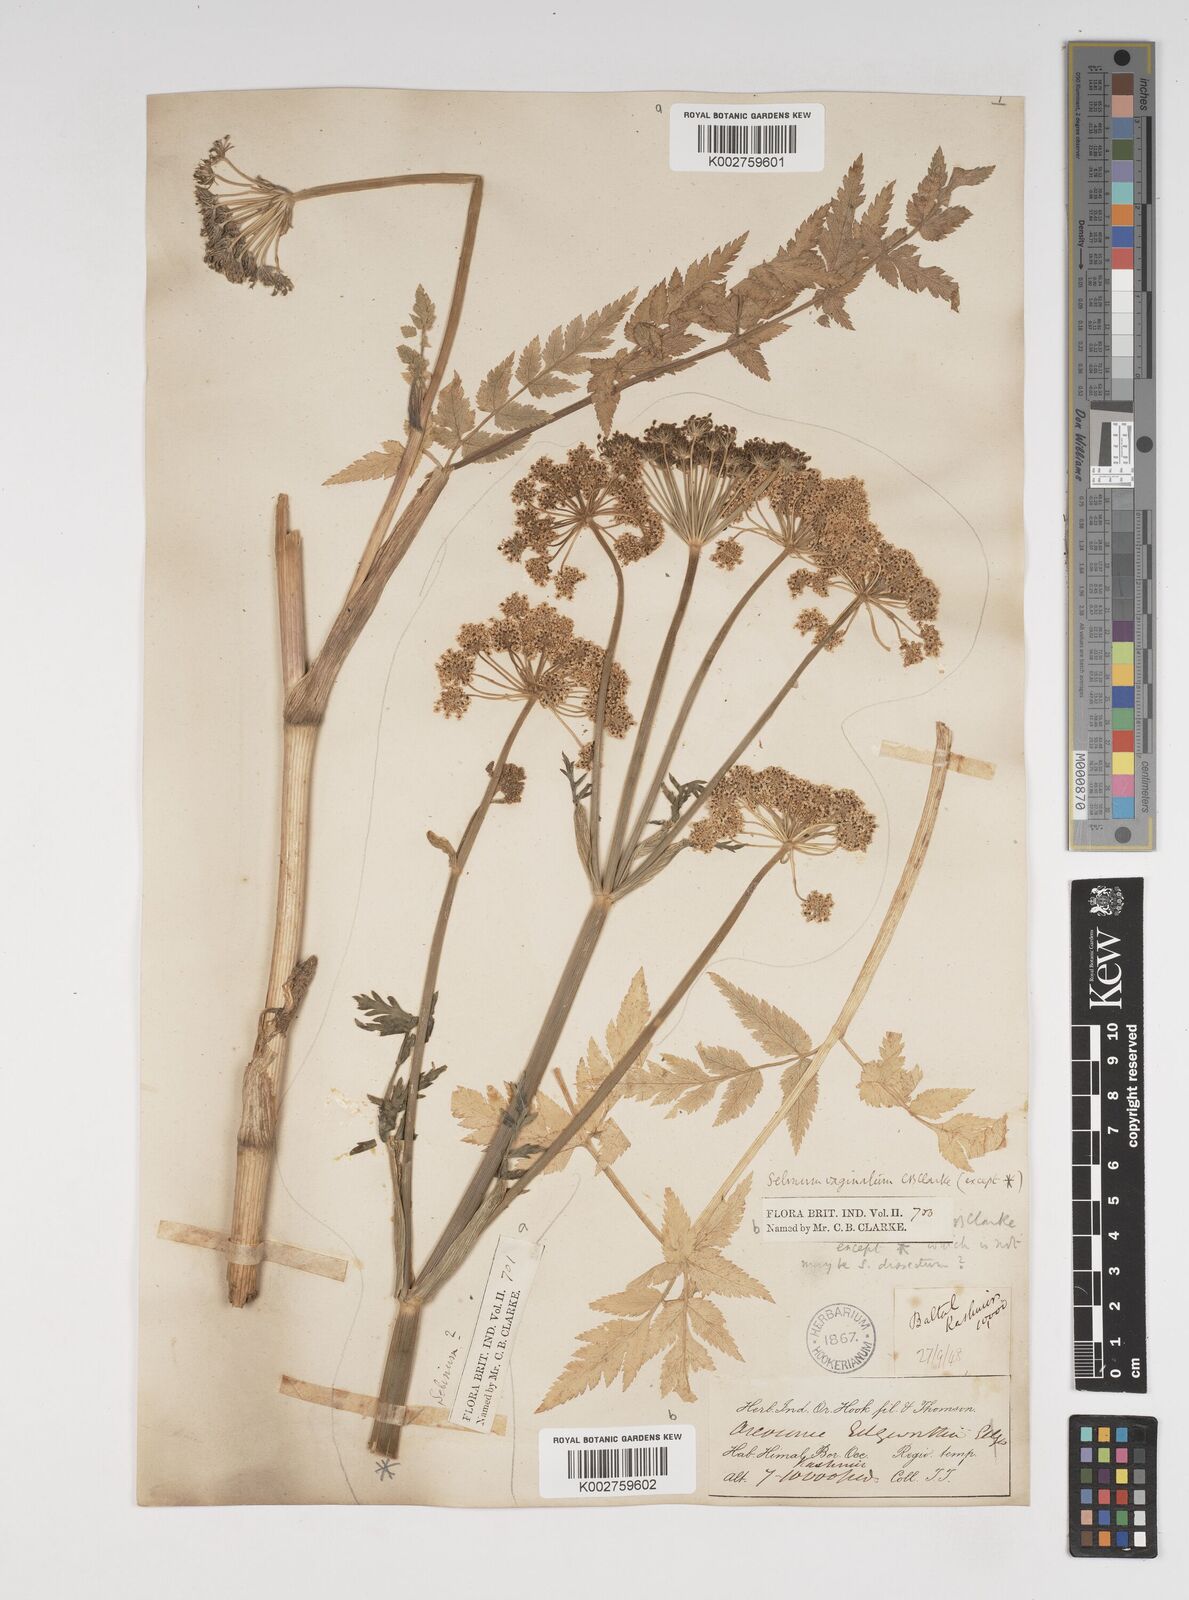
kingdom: Plantae
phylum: Tracheophyta
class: Magnoliopsida
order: Apiales
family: Apiaceae
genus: Selinum
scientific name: Selinum vaginatum
